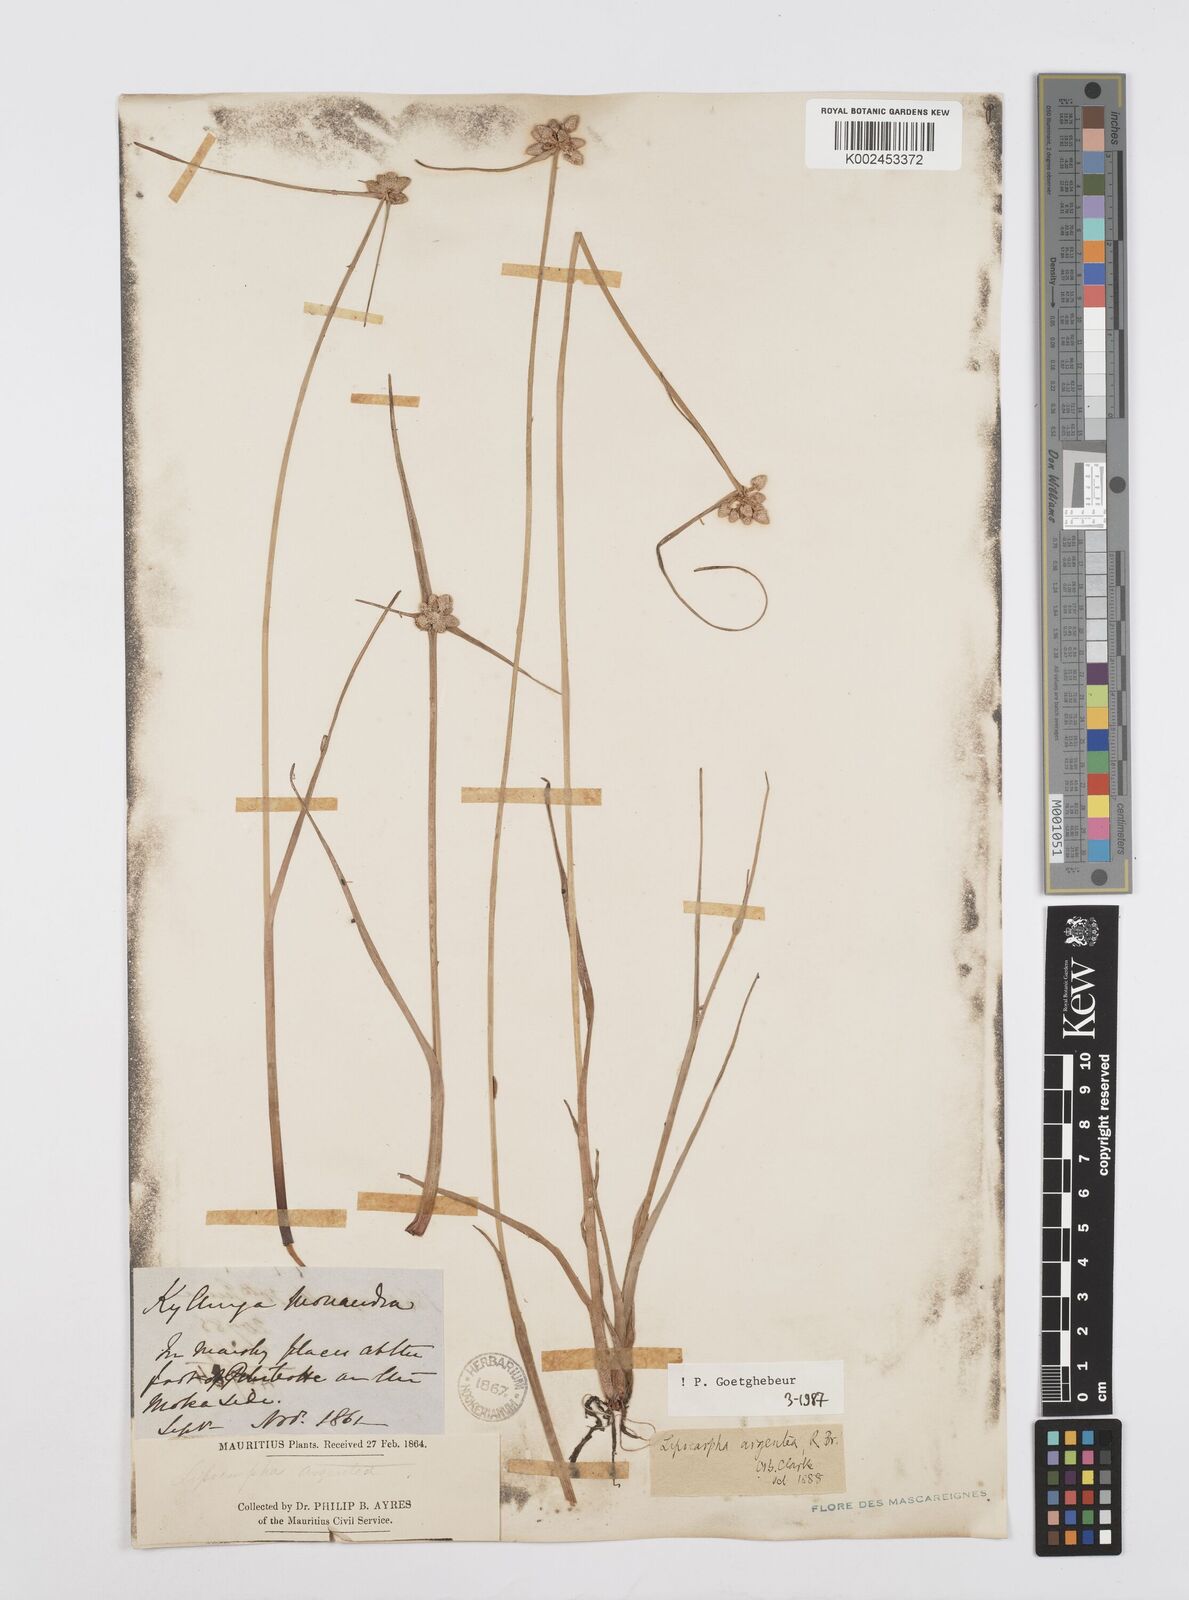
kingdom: Plantae
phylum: Tracheophyta
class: Liliopsida
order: Poales
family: Cyperaceae
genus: Cyperus
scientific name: Cyperus
